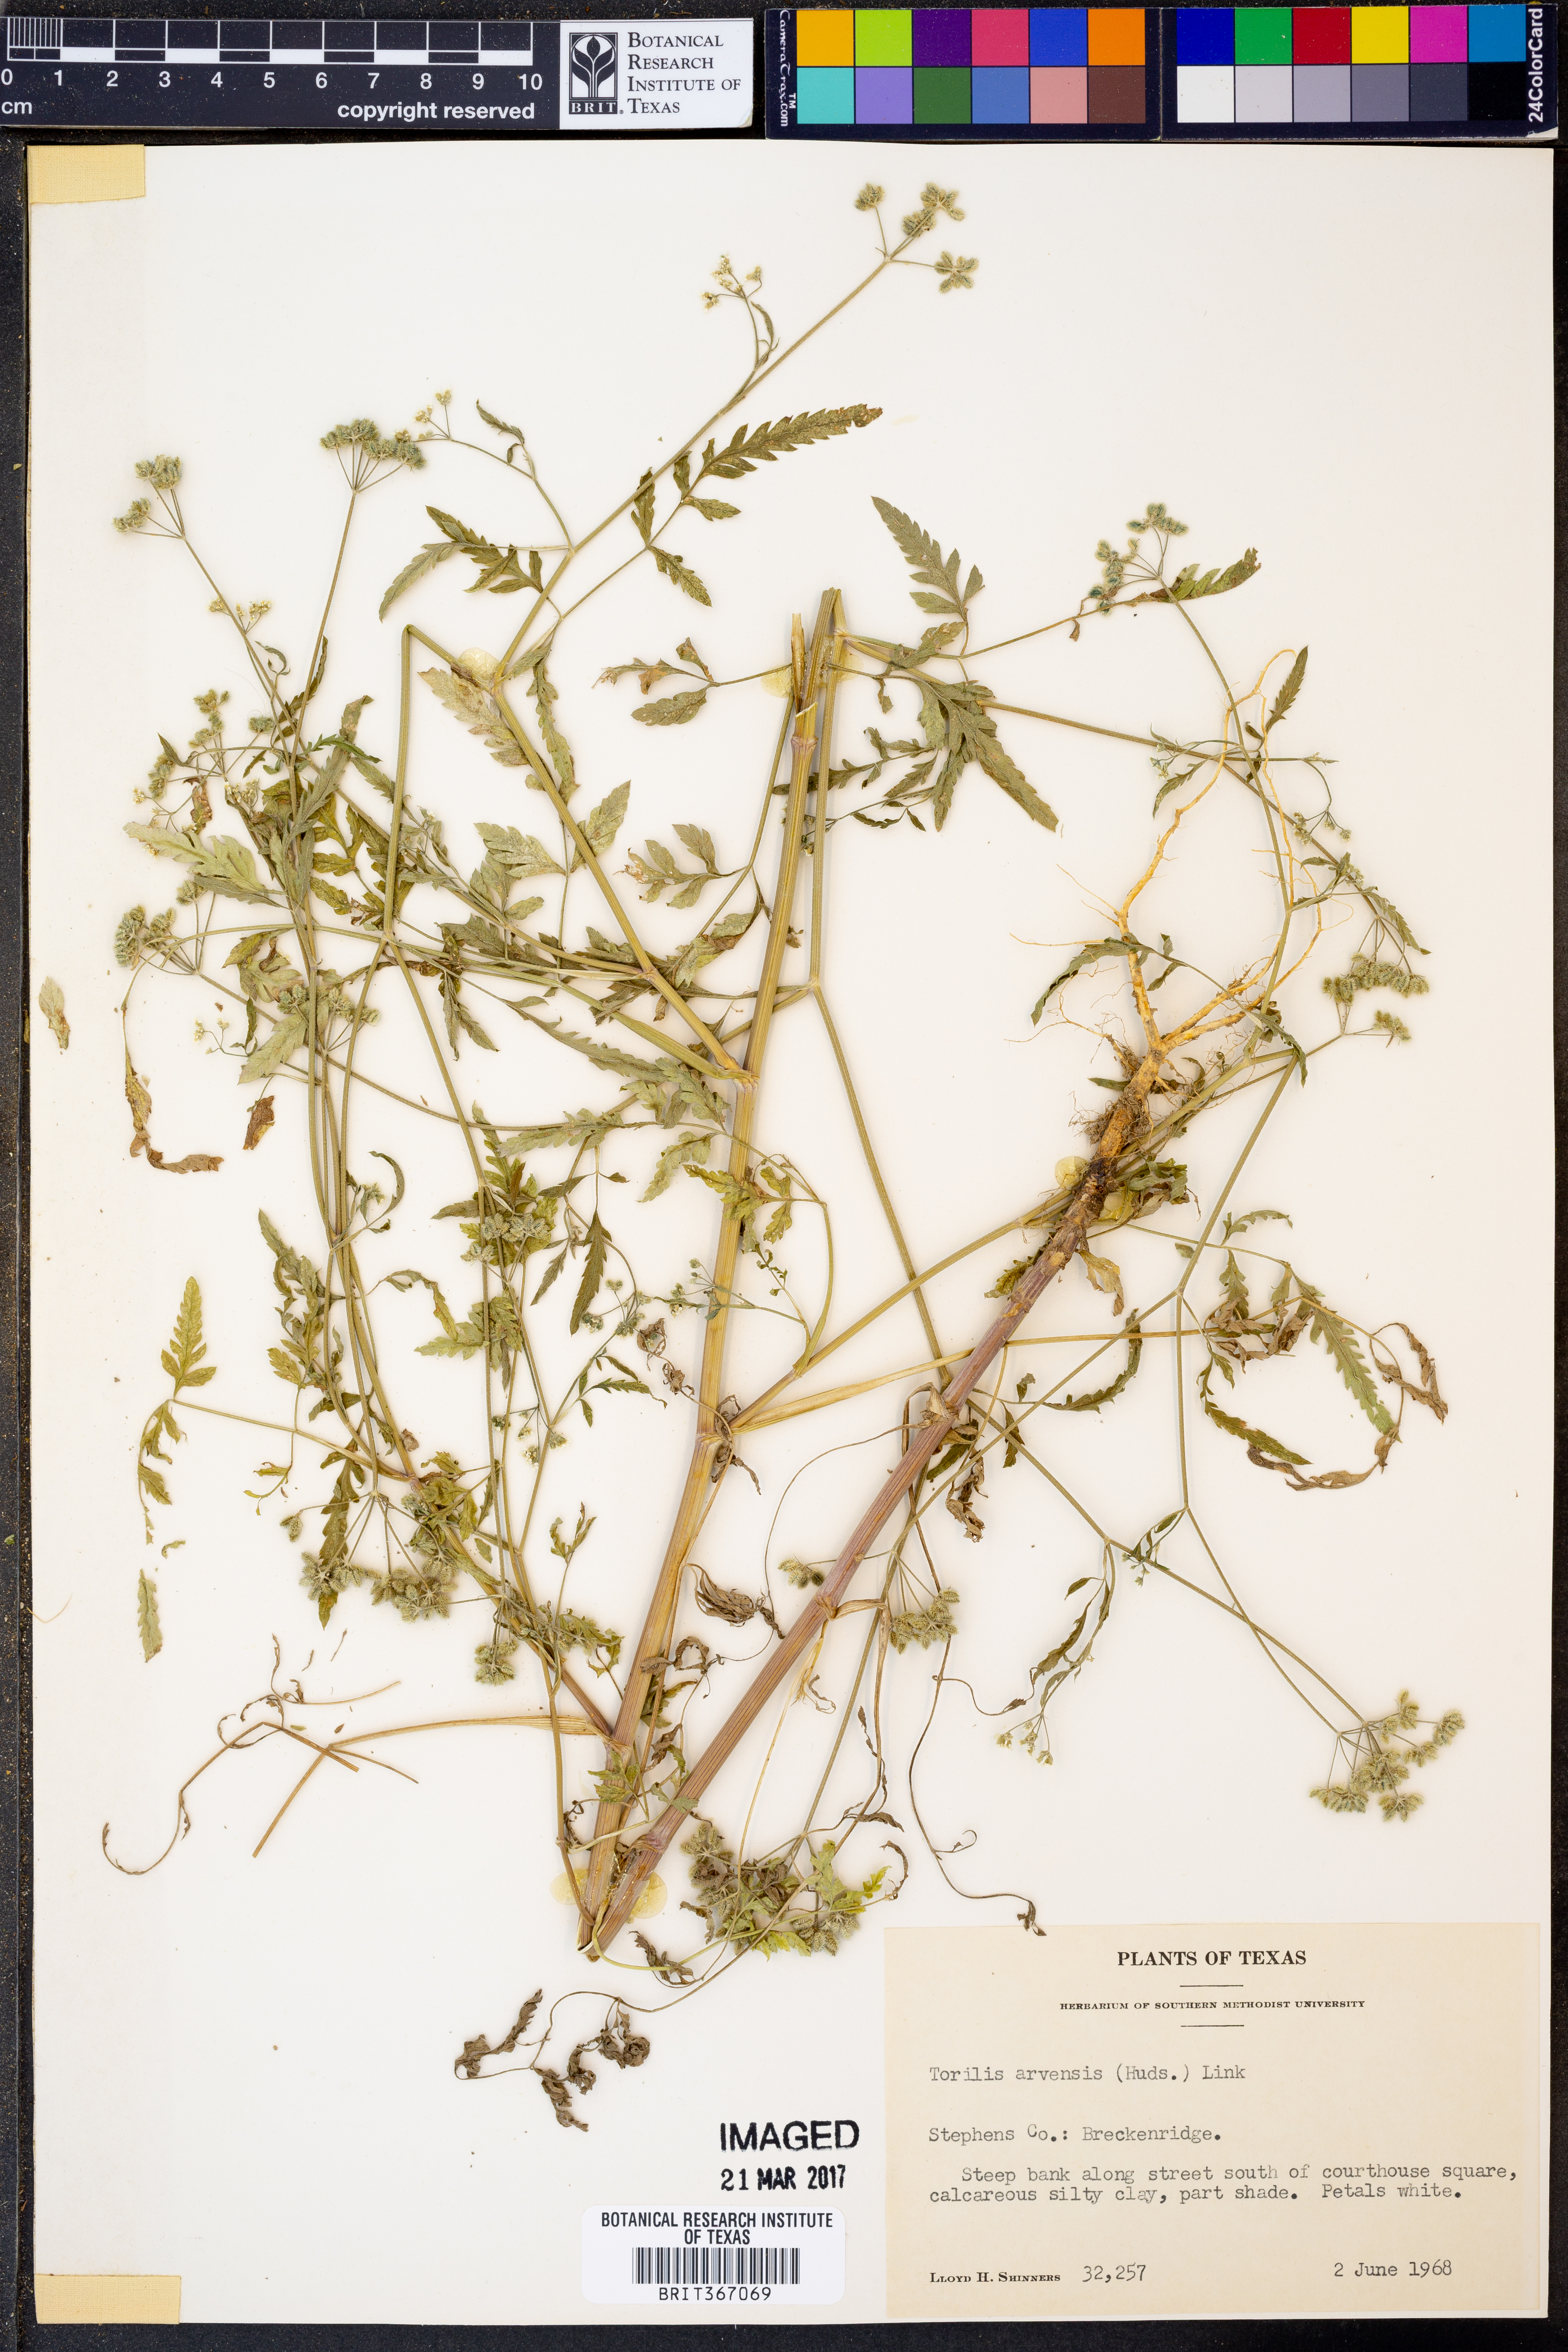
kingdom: Plantae
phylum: Tracheophyta
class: Magnoliopsida
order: Apiales
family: Apiaceae
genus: Torilis
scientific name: Torilis arvensis
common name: Spreading hedge-parsley
